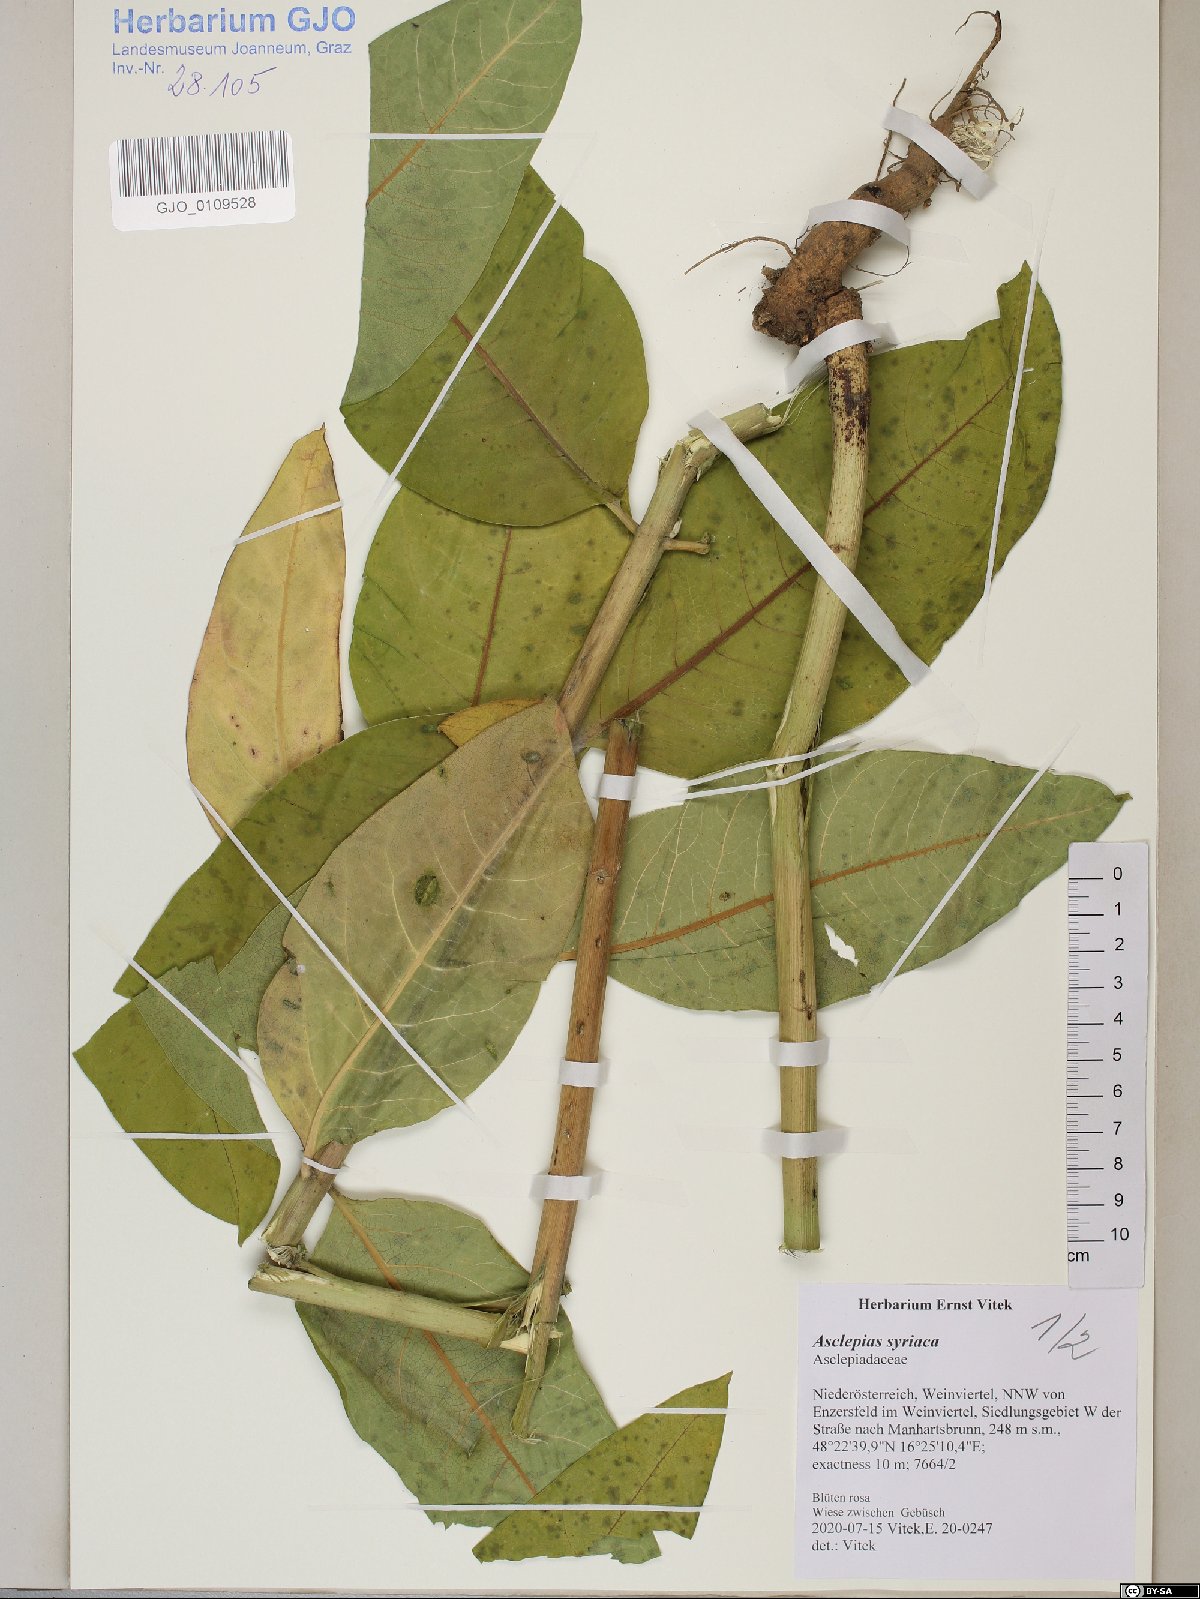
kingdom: Plantae
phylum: Tracheophyta
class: Magnoliopsida
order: Gentianales
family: Apocynaceae
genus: Asclepias
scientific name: Asclepias syriaca
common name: Common milkweed
